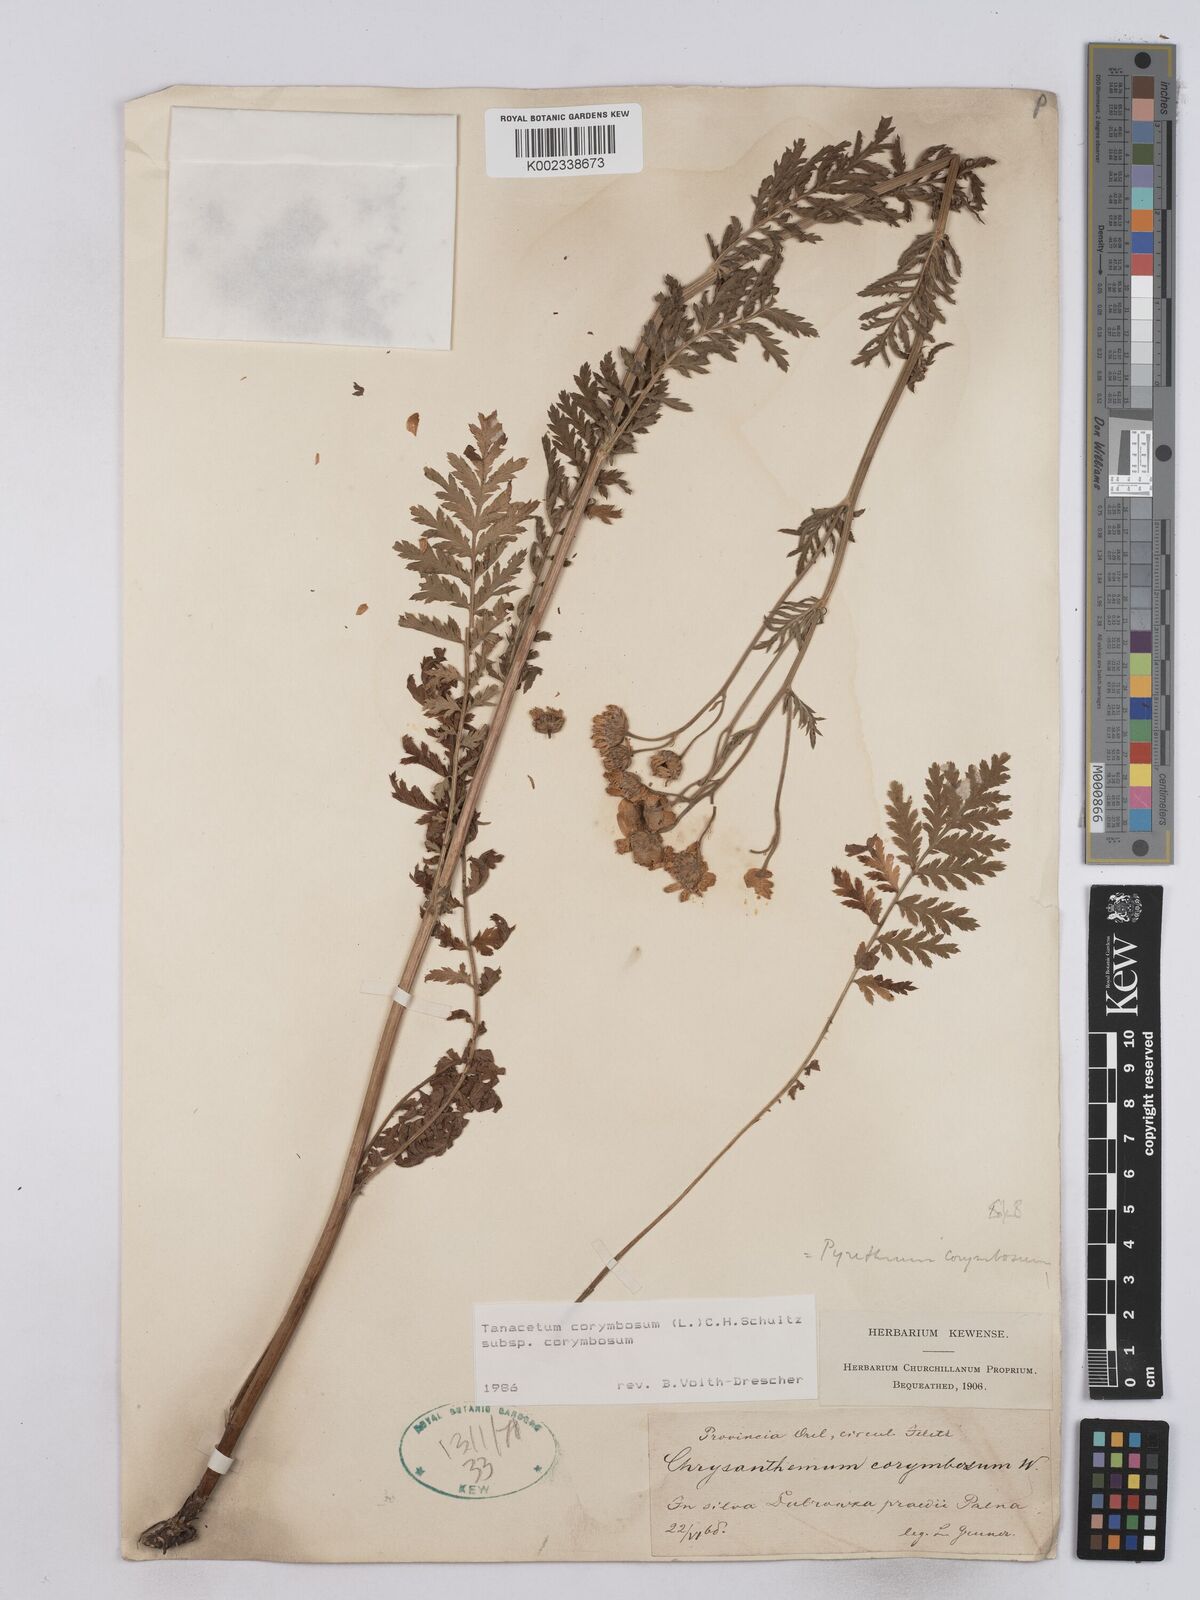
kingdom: Plantae
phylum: Tracheophyta
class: Magnoliopsida
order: Asterales
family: Asteraceae
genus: Tanacetum
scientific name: Tanacetum corymbosum
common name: Scentless feverfew
